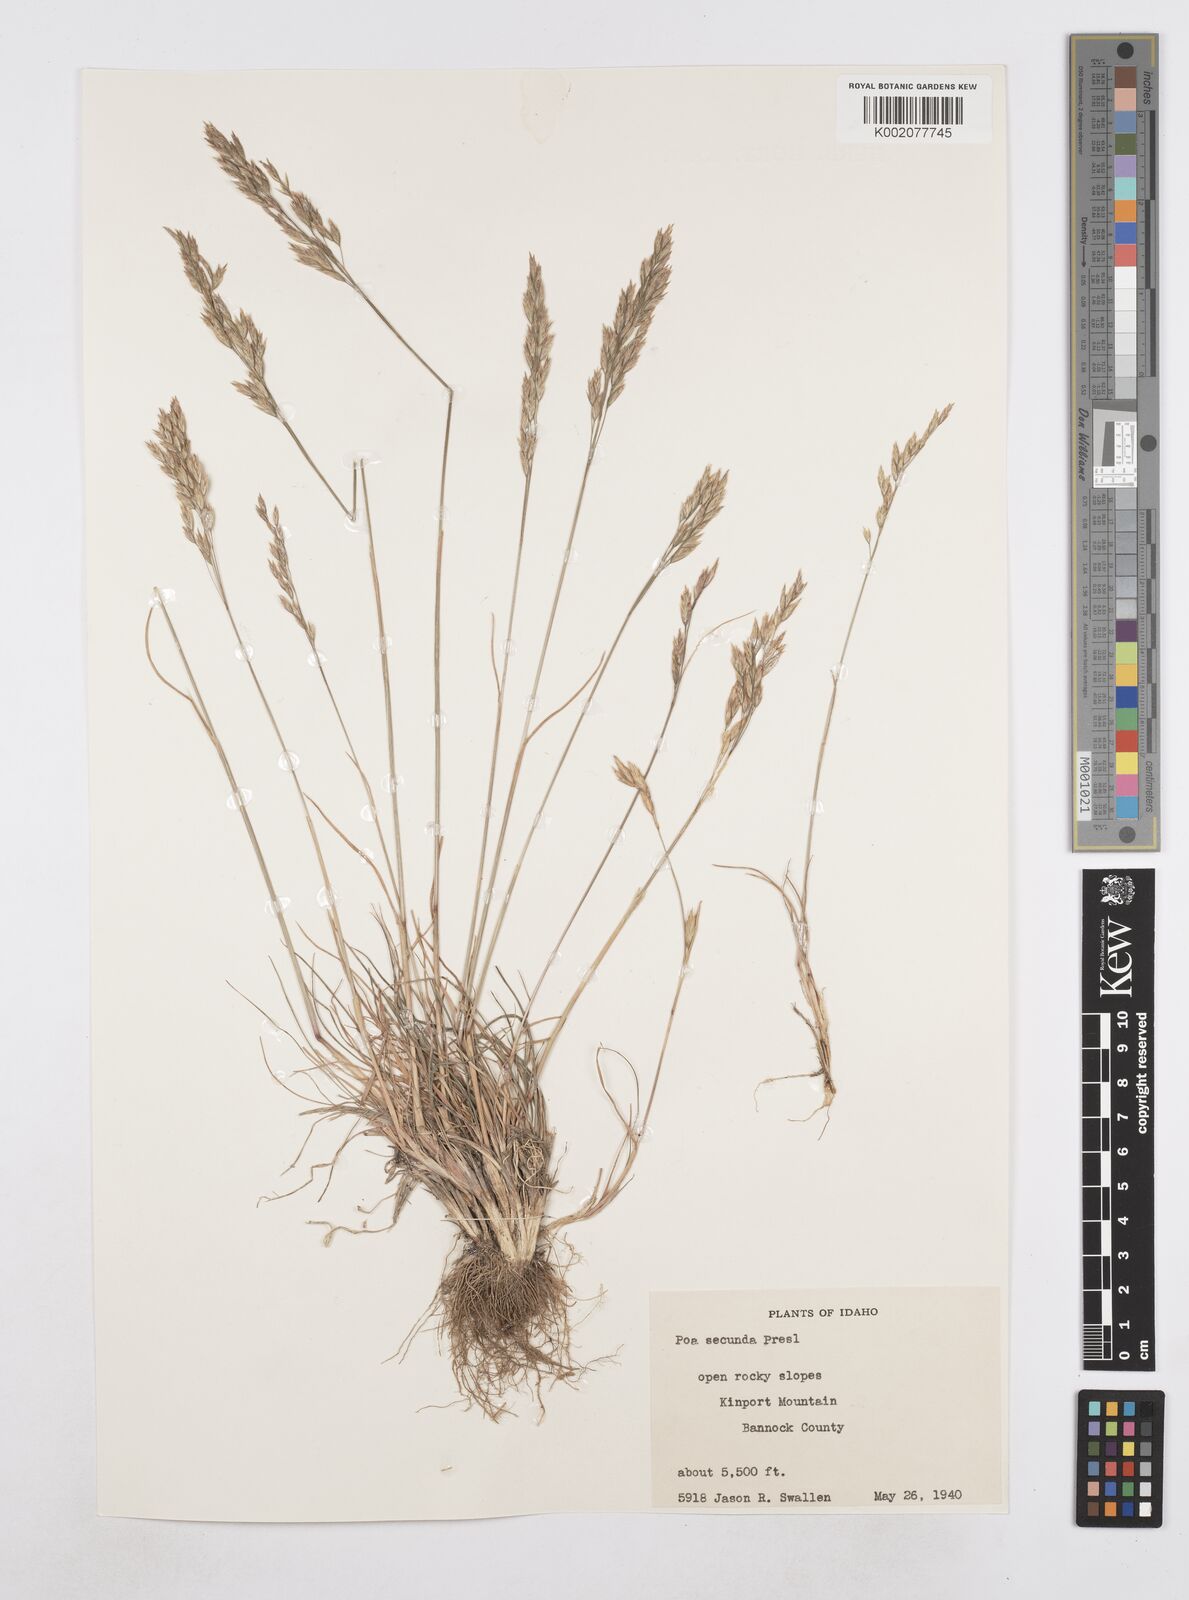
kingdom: Plantae
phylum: Tracheophyta
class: Liliopsida
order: Poales
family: Poaceae
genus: Poa
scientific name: Poa secunda
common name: Sandberg bluegrass
